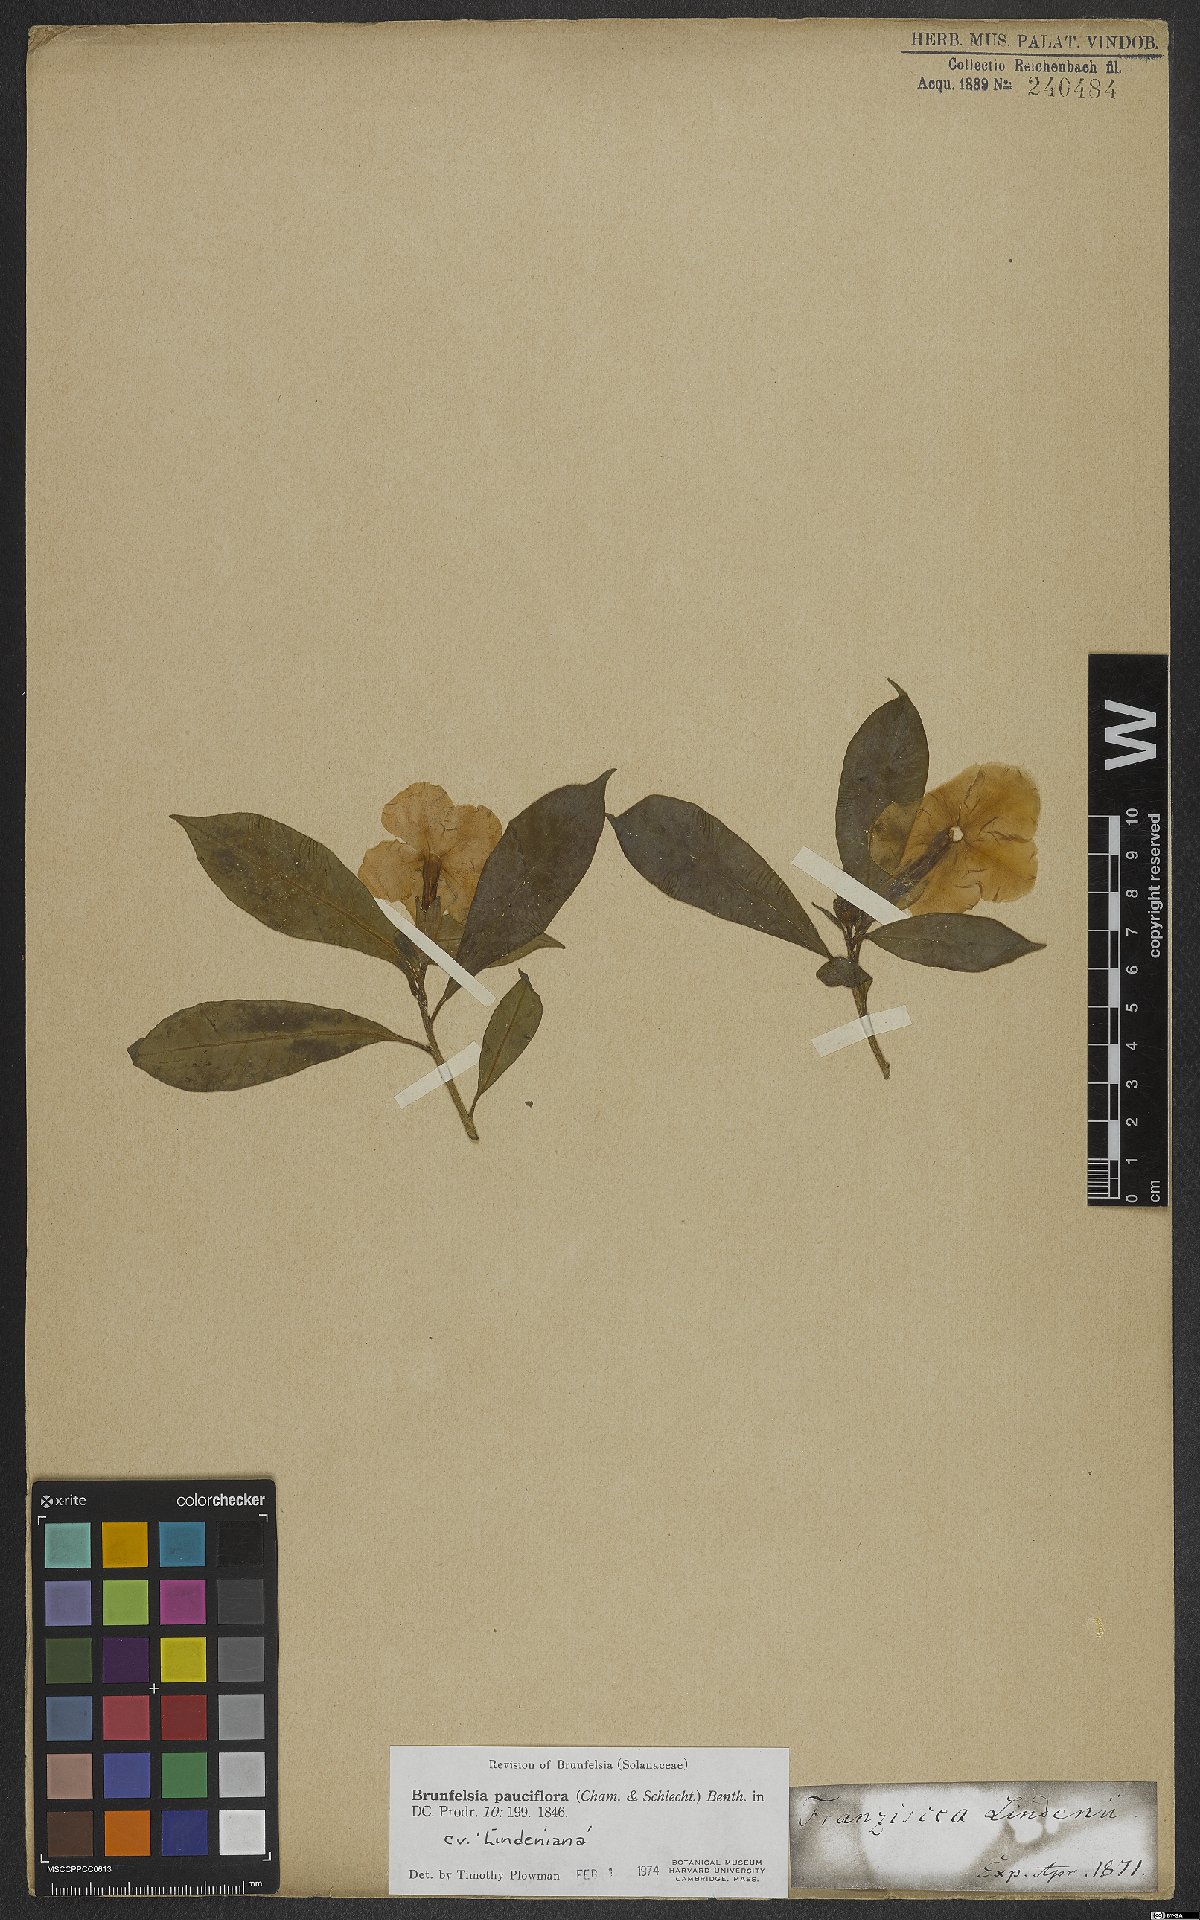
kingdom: Plantae
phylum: Tracheophyta
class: Magnoliopsida
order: Solanales
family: Solanaceae
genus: Brunfelsia
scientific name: Brunfelsia pauciflora
